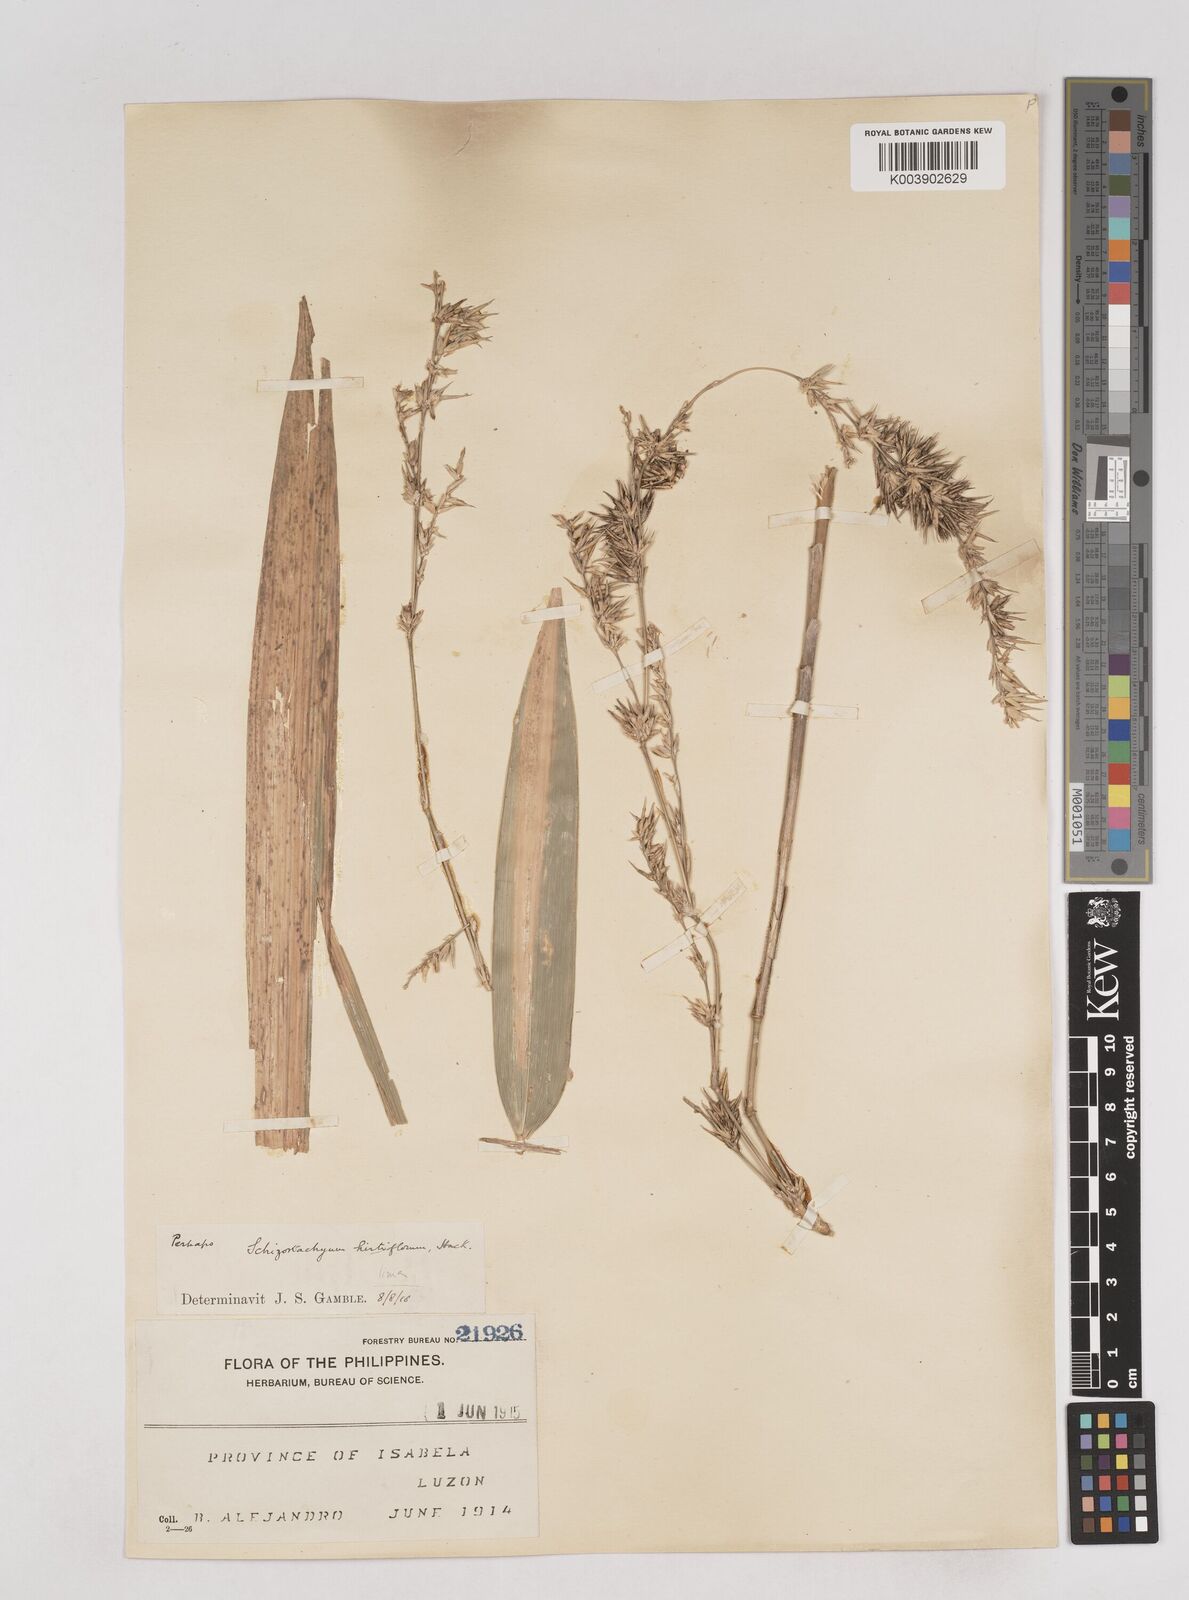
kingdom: Plantae
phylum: Tracheophyta
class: Liliopsida
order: Poales
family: Poaceae
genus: Schizostachyum
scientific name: Schizostachyum lima
